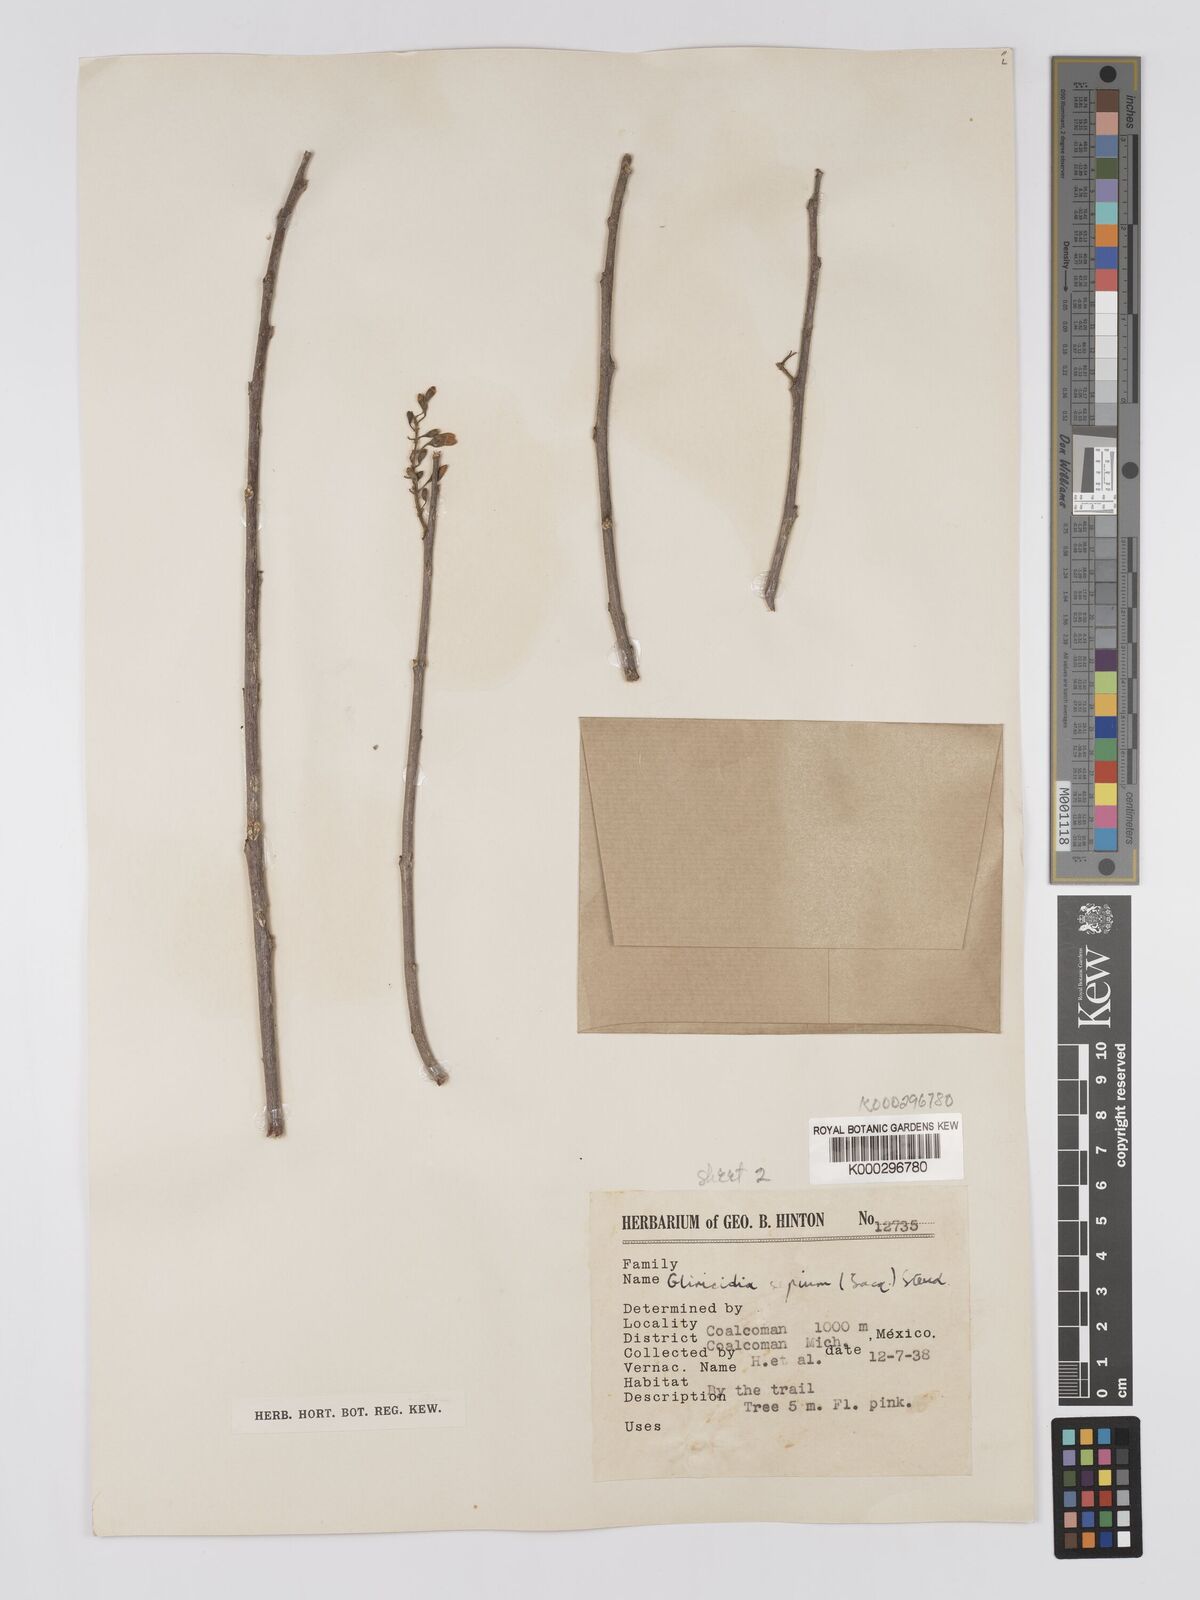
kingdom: Plantae
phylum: Tracheophyta
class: Magnoliopsida
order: Fabales
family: Fabaceae
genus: Gliricidia
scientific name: Gliricidia sepium
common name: Quickstick
